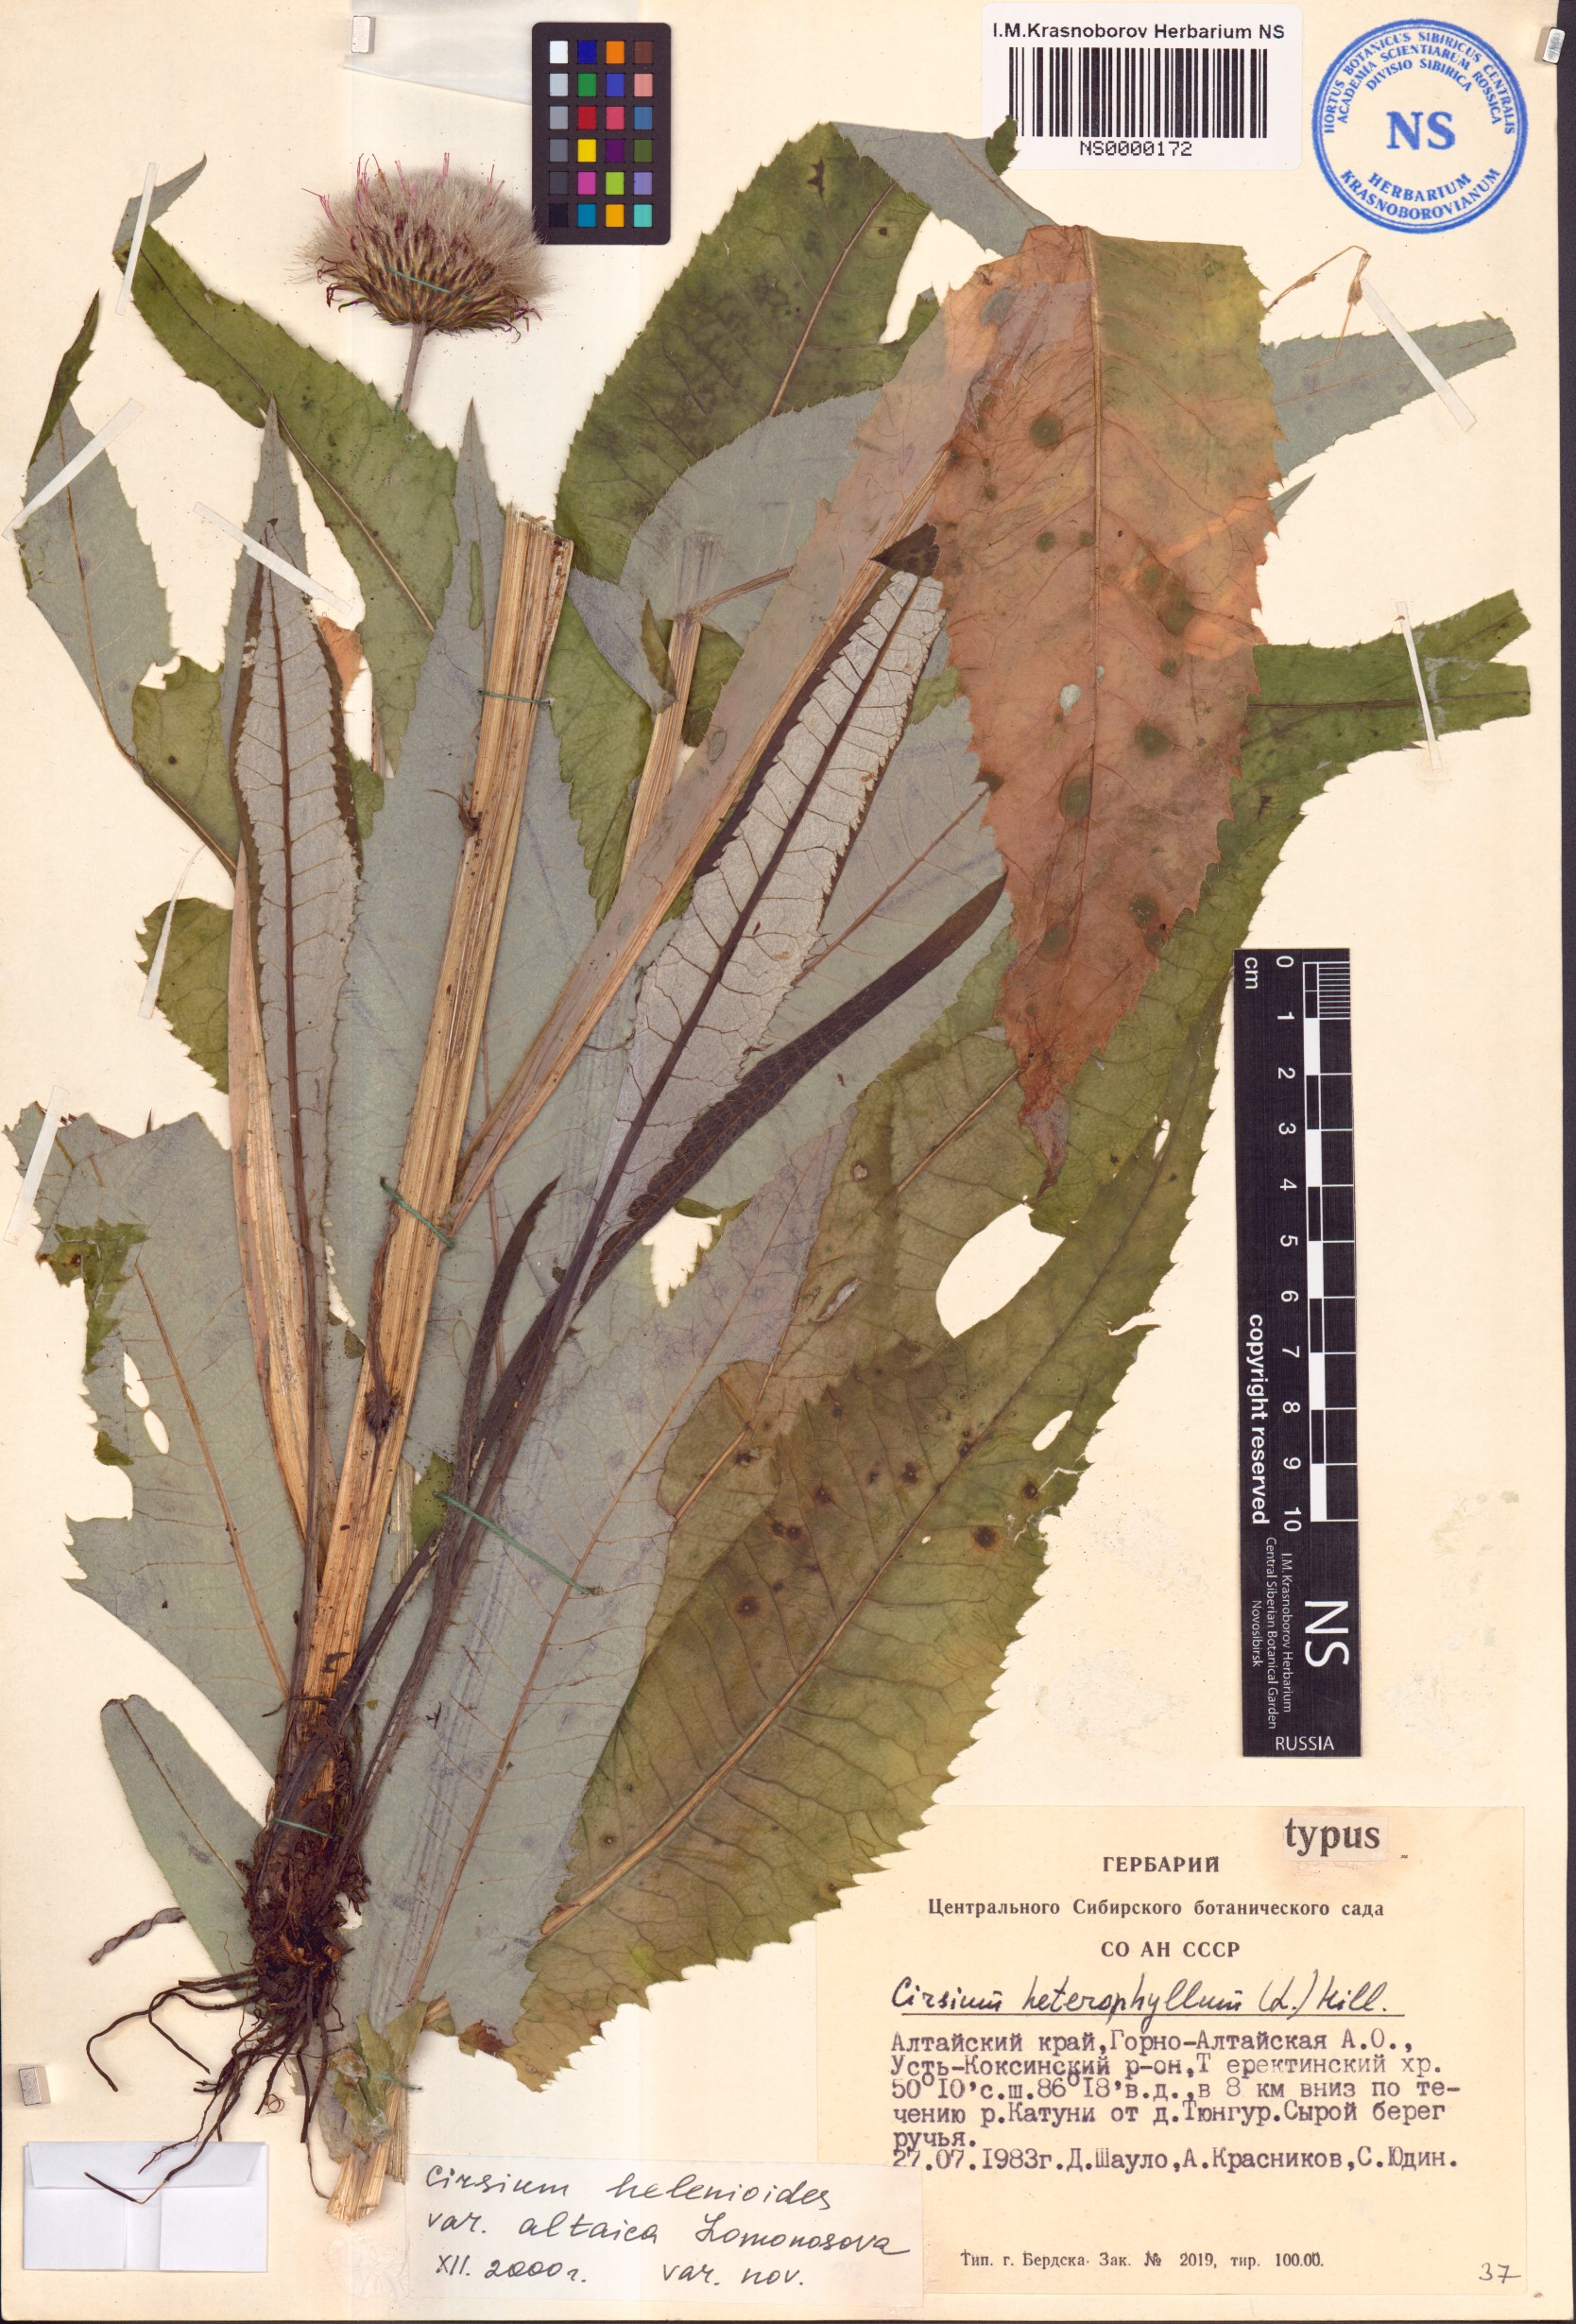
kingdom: Plantae
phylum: Tracheophyta
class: Magnoliopsida
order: Asterales
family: Asteraceae
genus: Cirsium
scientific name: Cirsium helenioides
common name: Melancholy thistle
